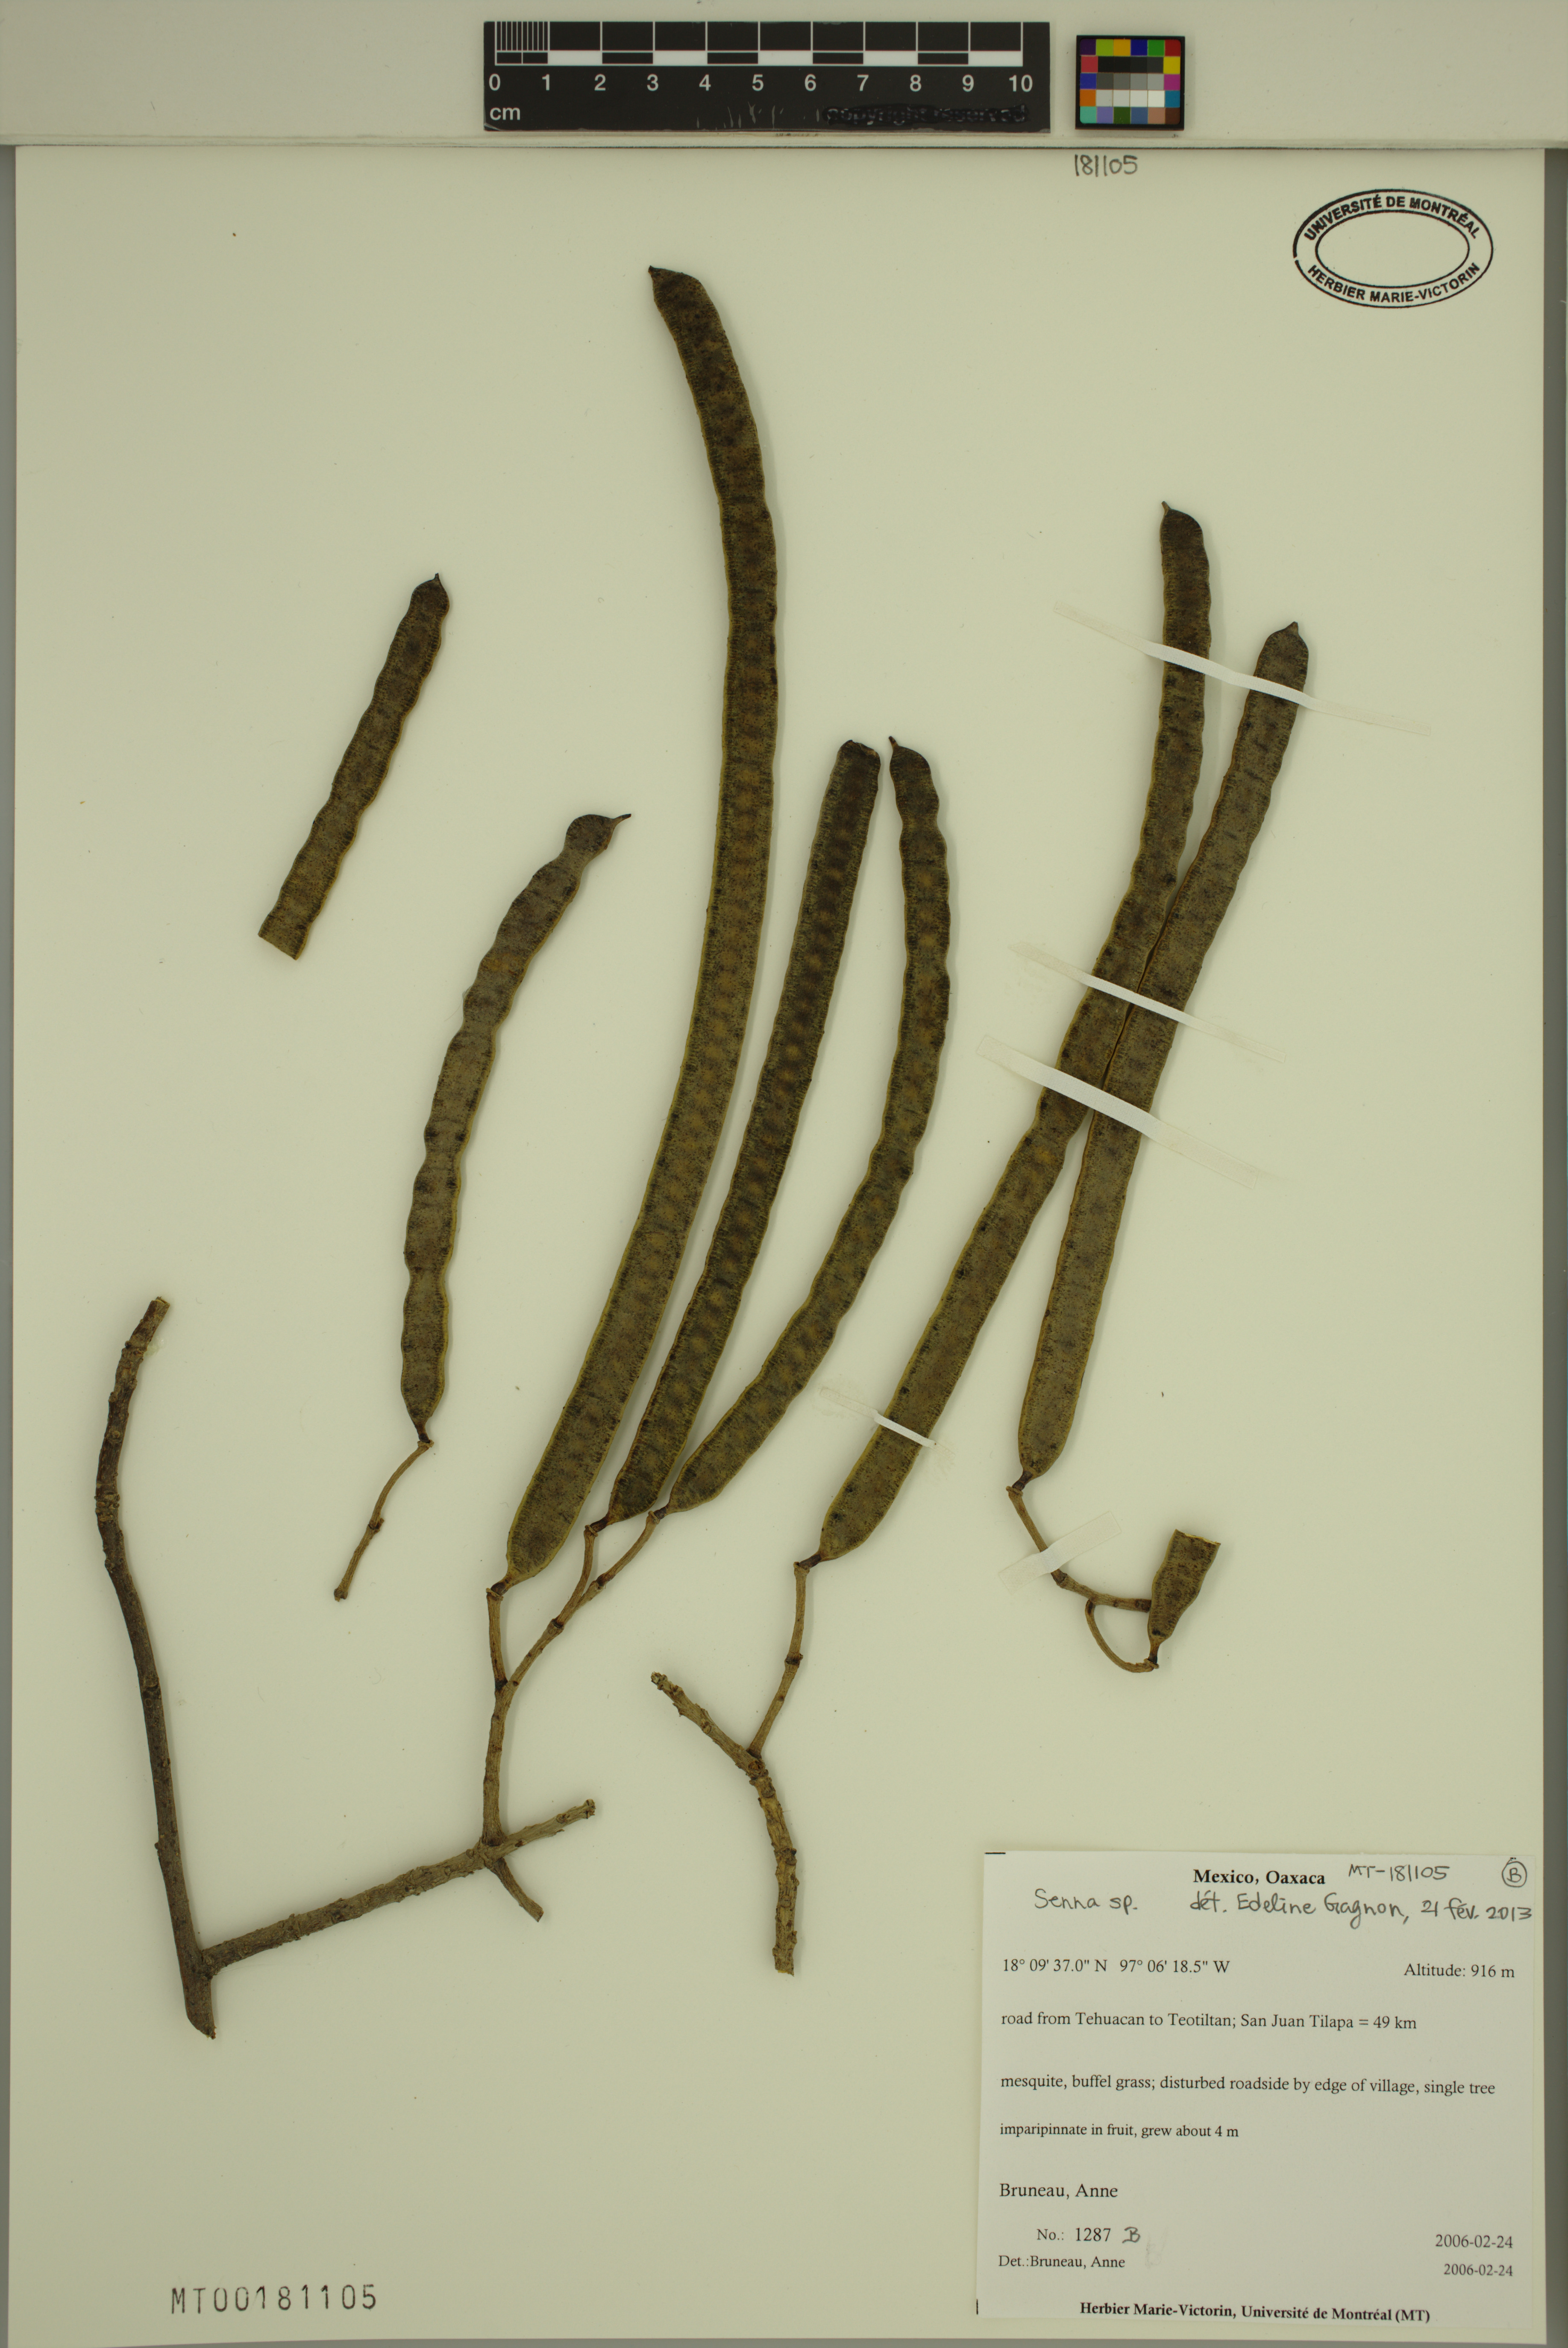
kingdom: Plantae
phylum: Tracheophyta
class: Magnoliopsida
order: Fabales
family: Fabaceae
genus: Senna
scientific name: Senna
